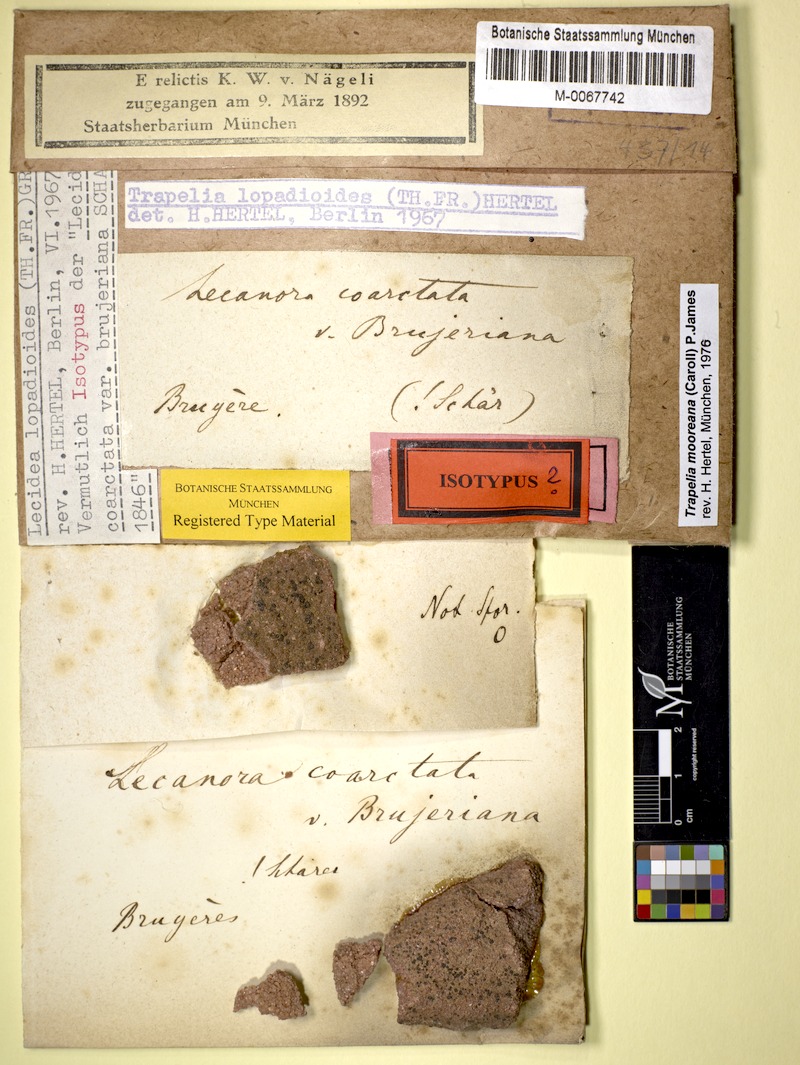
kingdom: Fungi
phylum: Ascomycota
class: Lecanoromycetes
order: Baeomycetales
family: Baeomycetaceae
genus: Ainoa
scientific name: Ainoa mooreana
